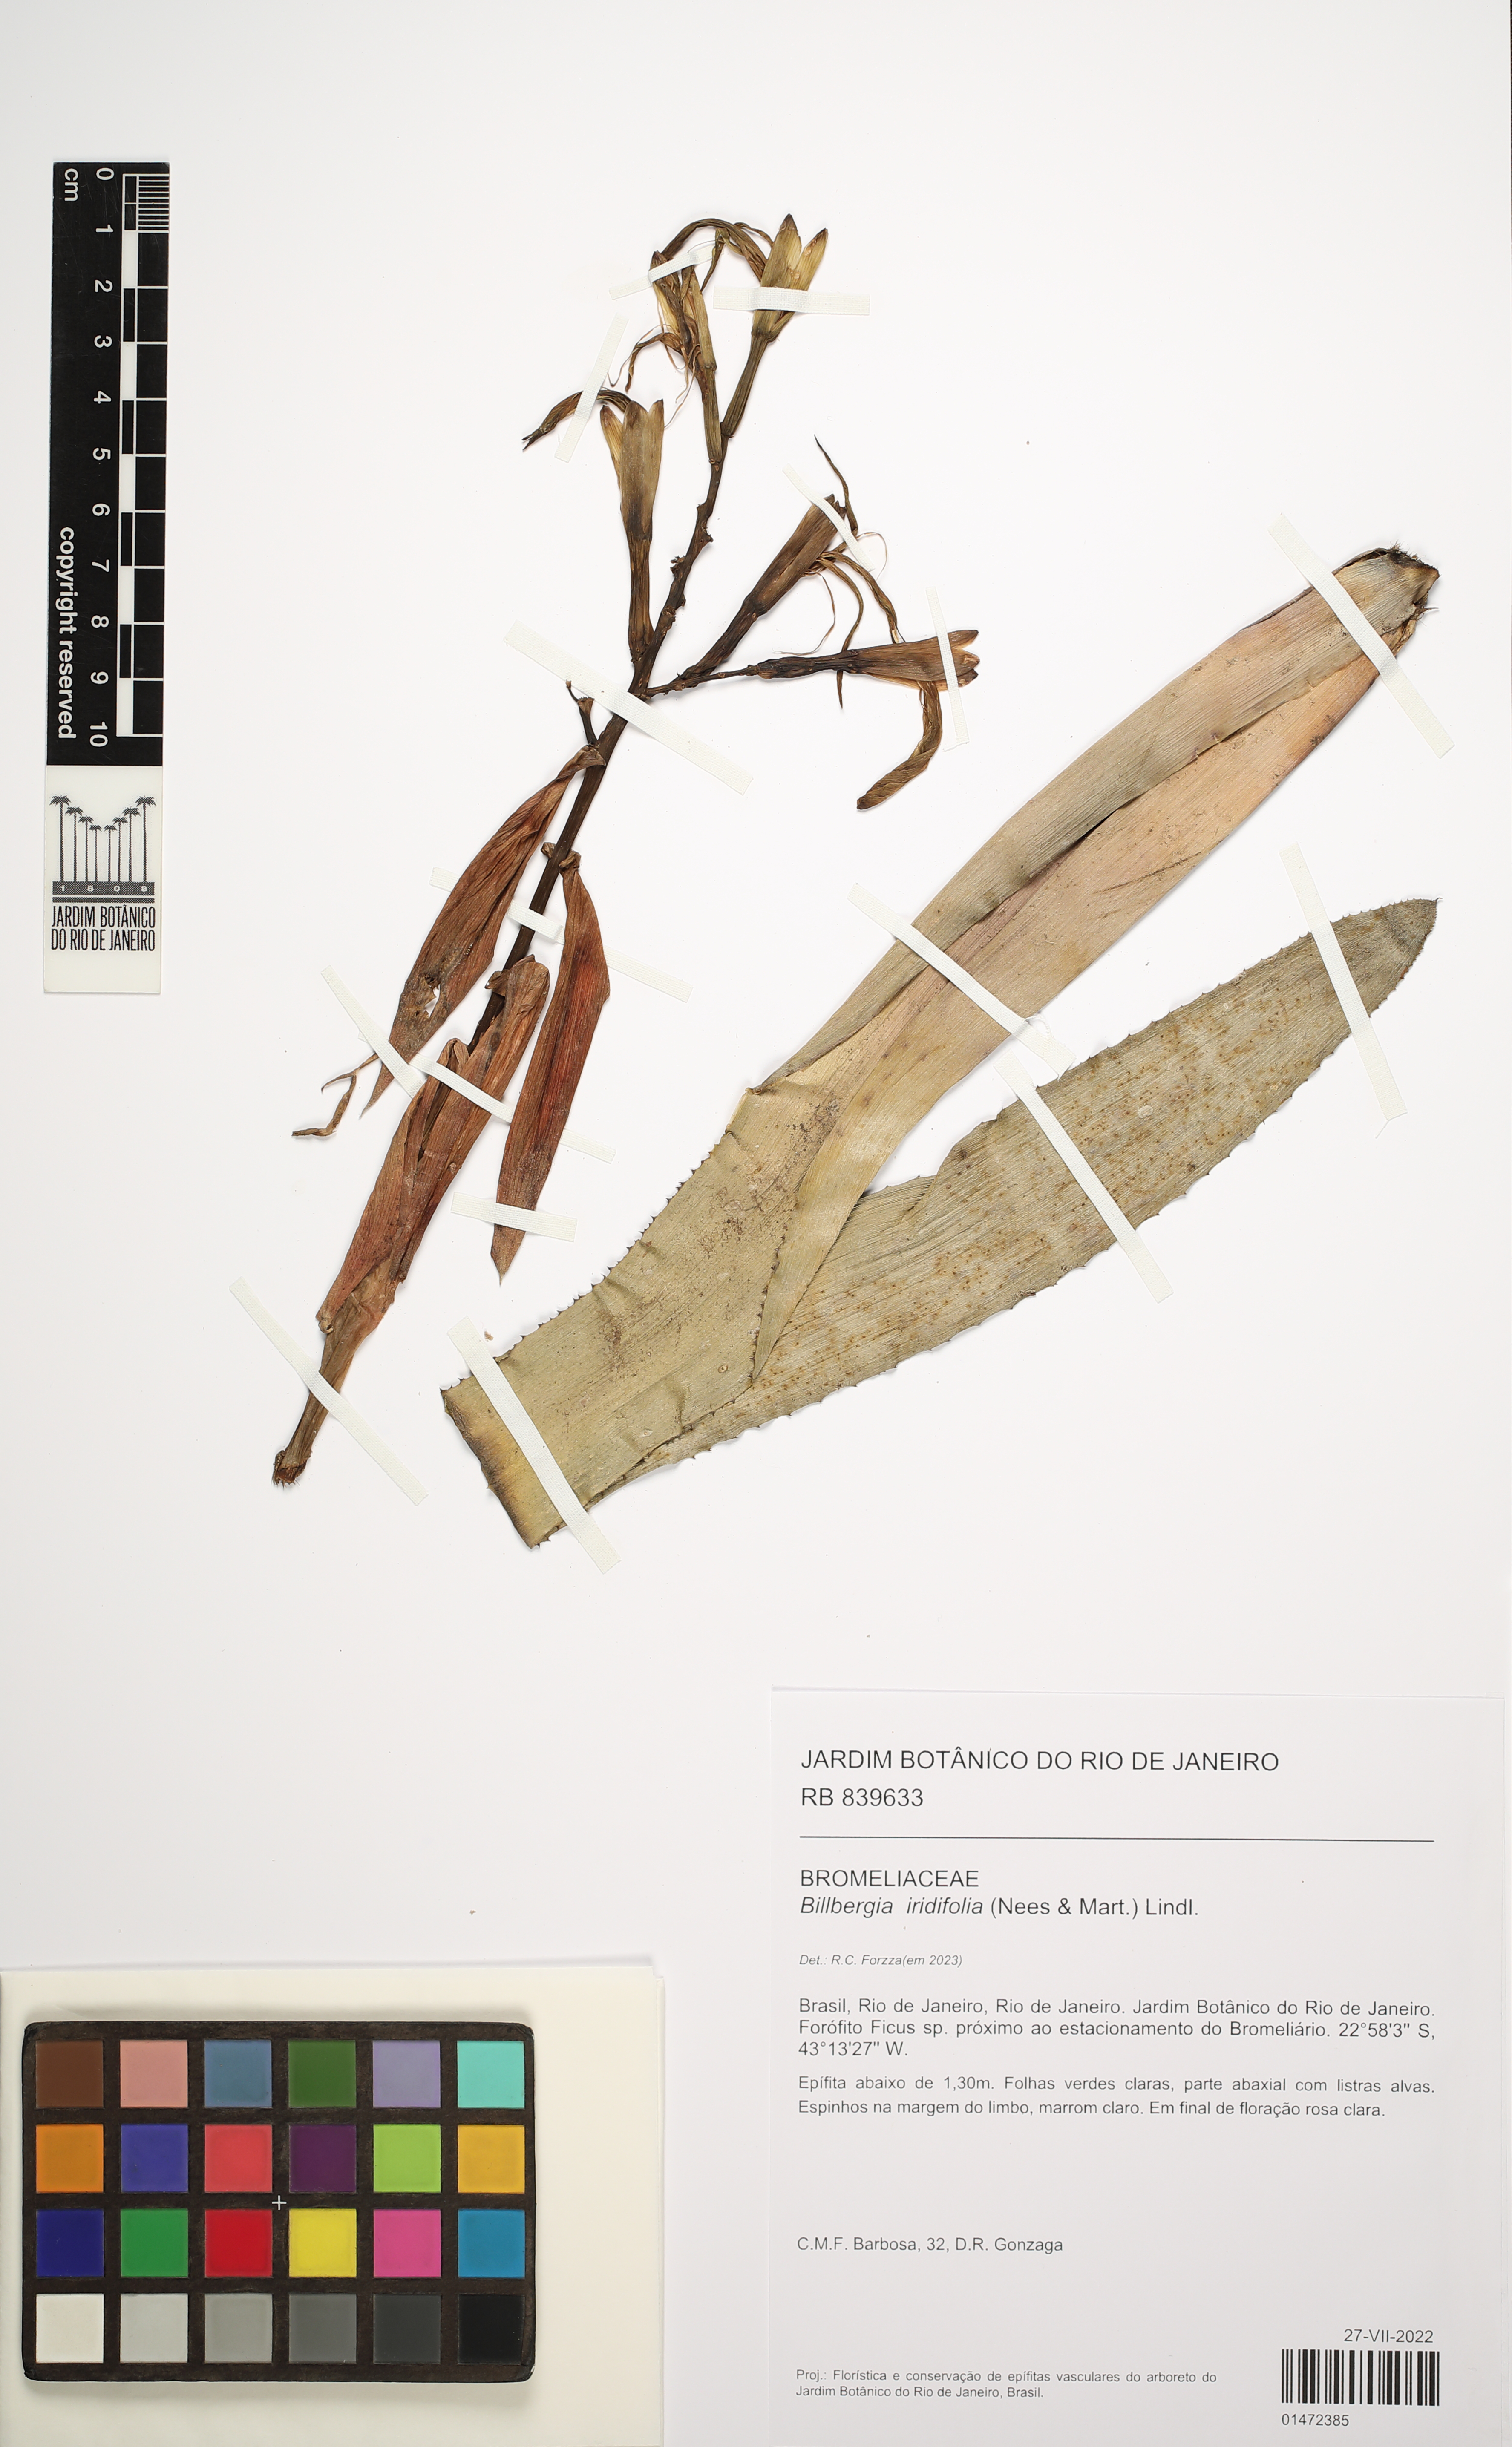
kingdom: Plantae
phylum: Tracheophyta
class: Liliopsida
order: Poales
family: Bromeliaceae
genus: Billbergia
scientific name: Billbergia iridifolia
